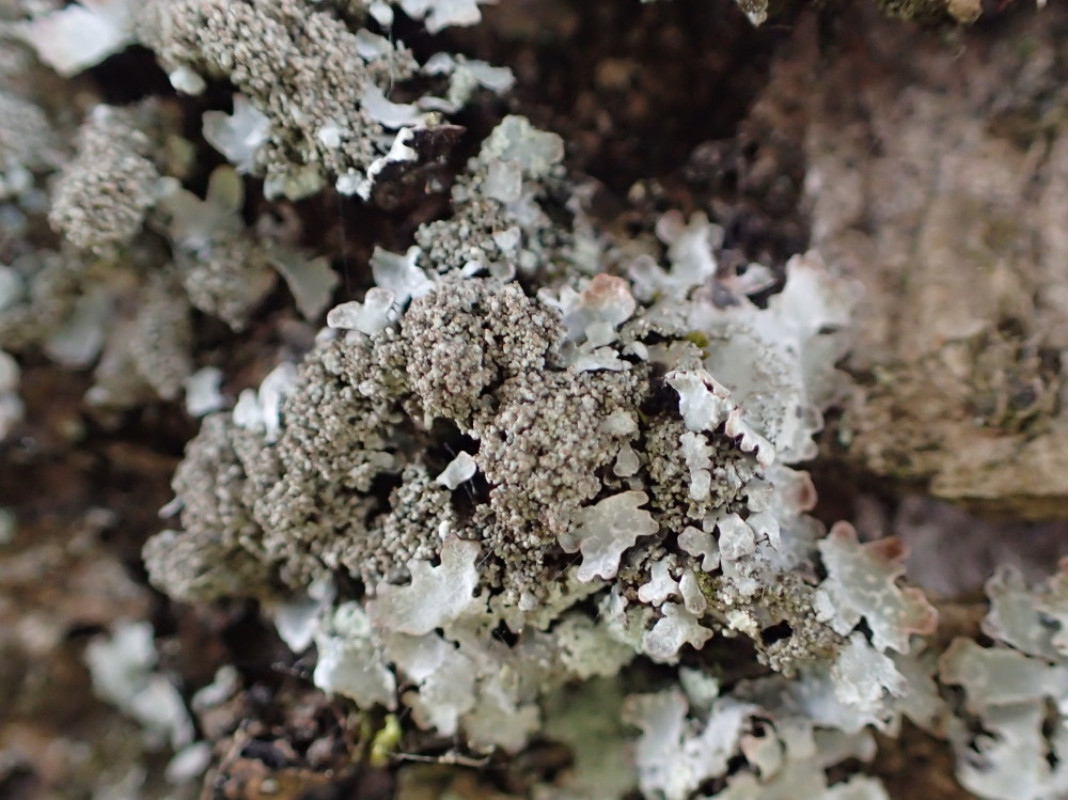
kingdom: Fungi
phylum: Ascomycota
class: Lecanoromycetes
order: Lecanorales
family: Parmeliaceae
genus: Parmelia
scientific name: Parmelia saxatilis
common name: farve-skållav
